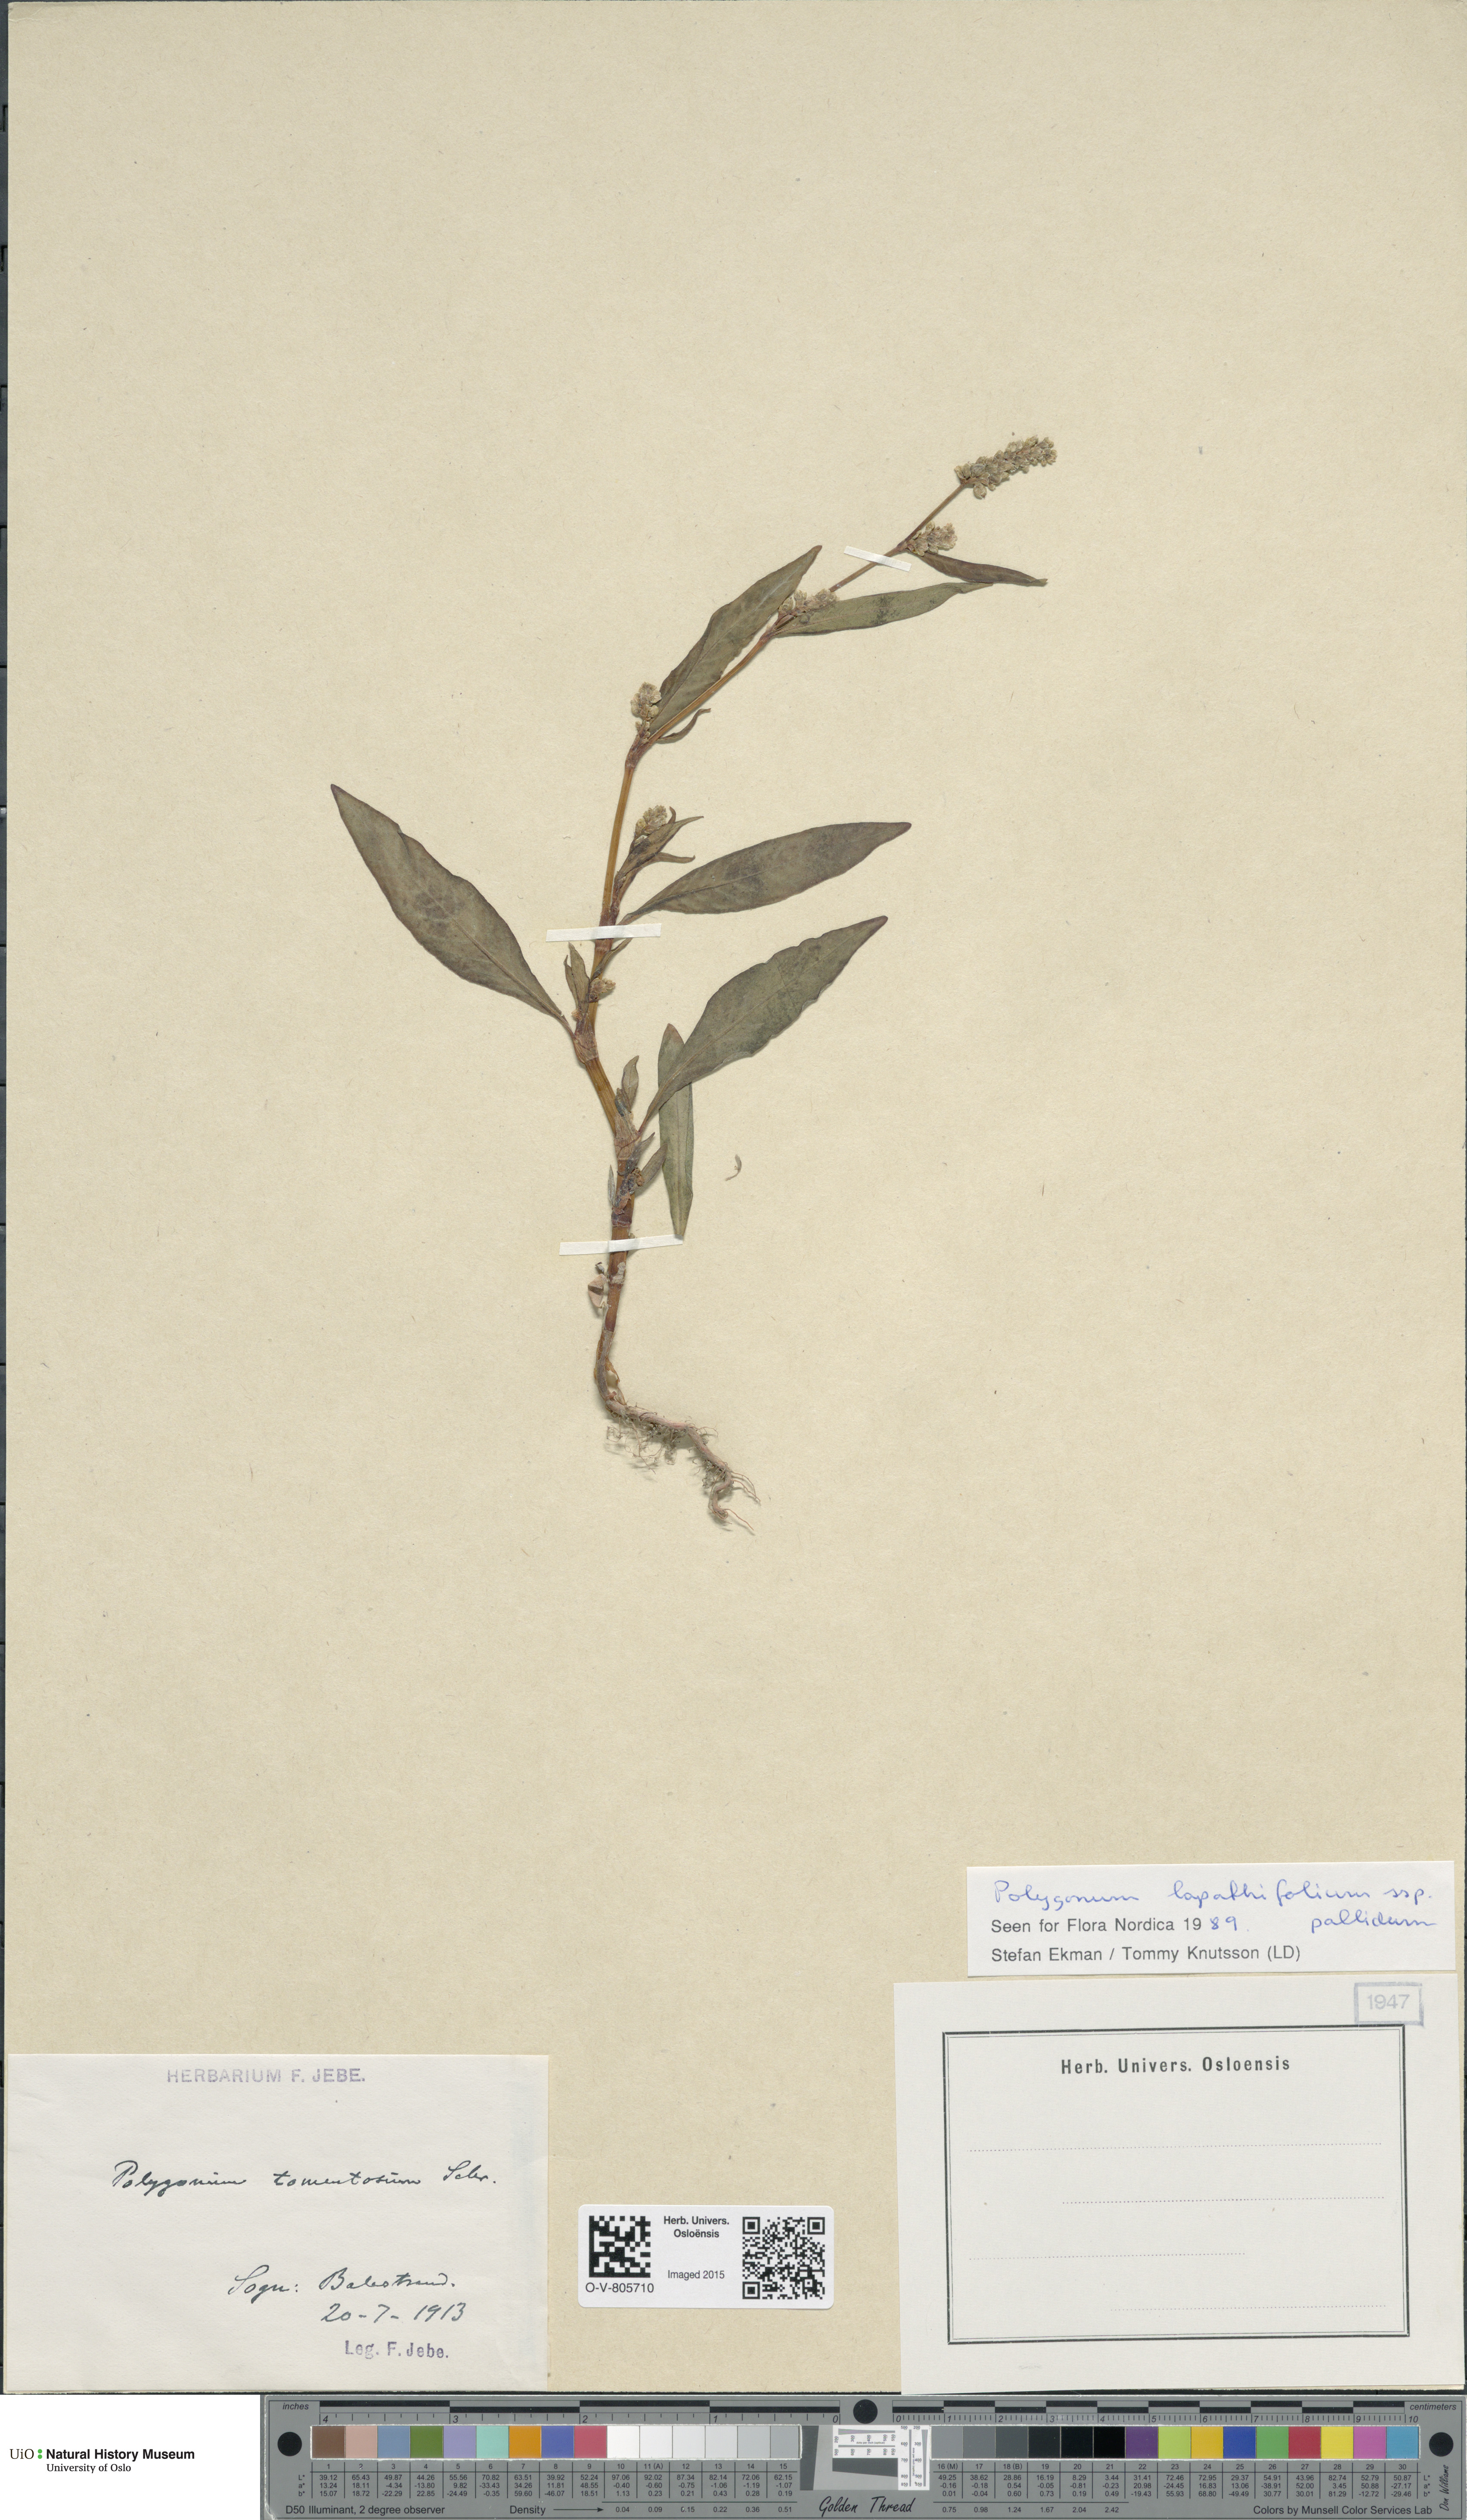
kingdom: Plantae
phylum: Tracheophyta
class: Magnoliopsida
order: Caryophyllales
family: Polygonaceae
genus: Persicaria
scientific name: Persicaria lapathifolia
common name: Curlytop knotweed
